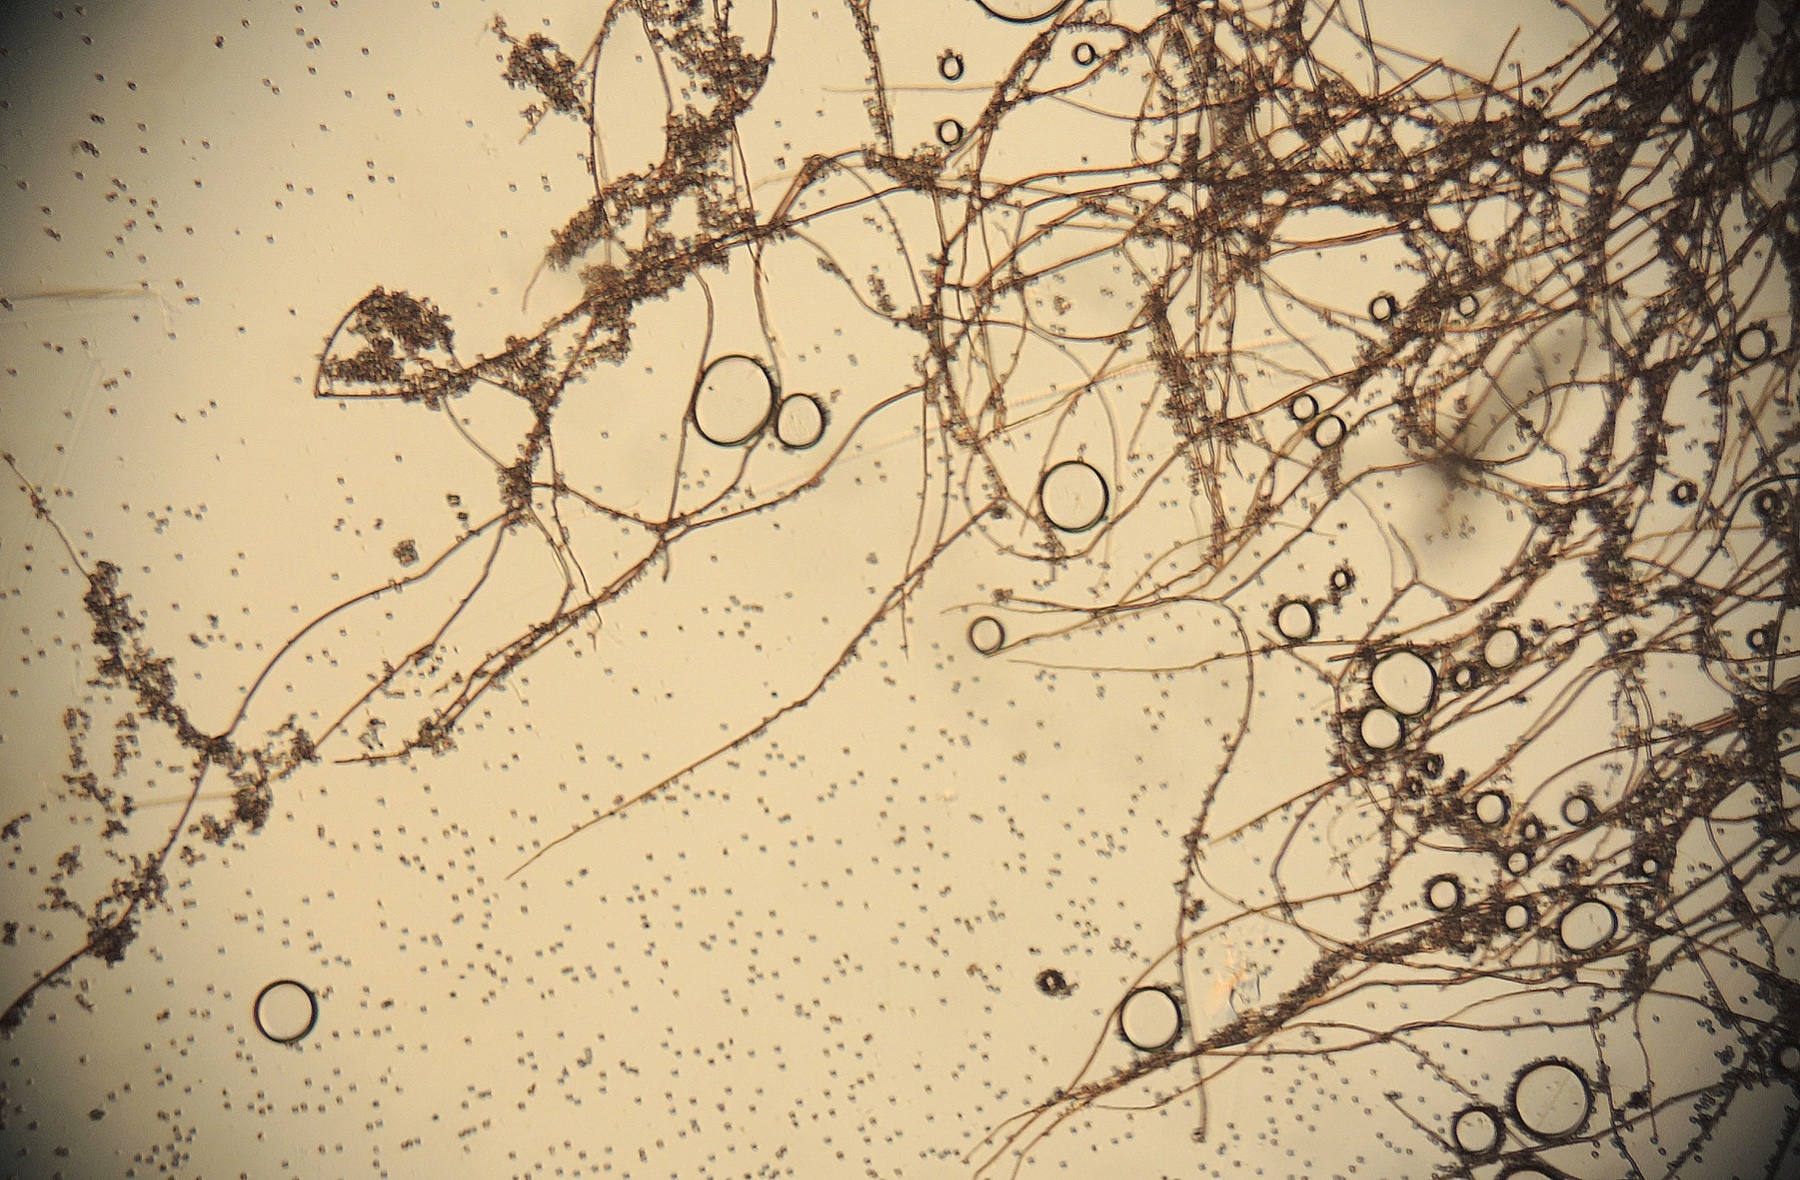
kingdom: Fungi
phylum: Basidiomycota
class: Agaricomycetes
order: Agaricales
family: Lycoperdaceae
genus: Bovista
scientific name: Bovista aestivalis
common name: klit-bovist
